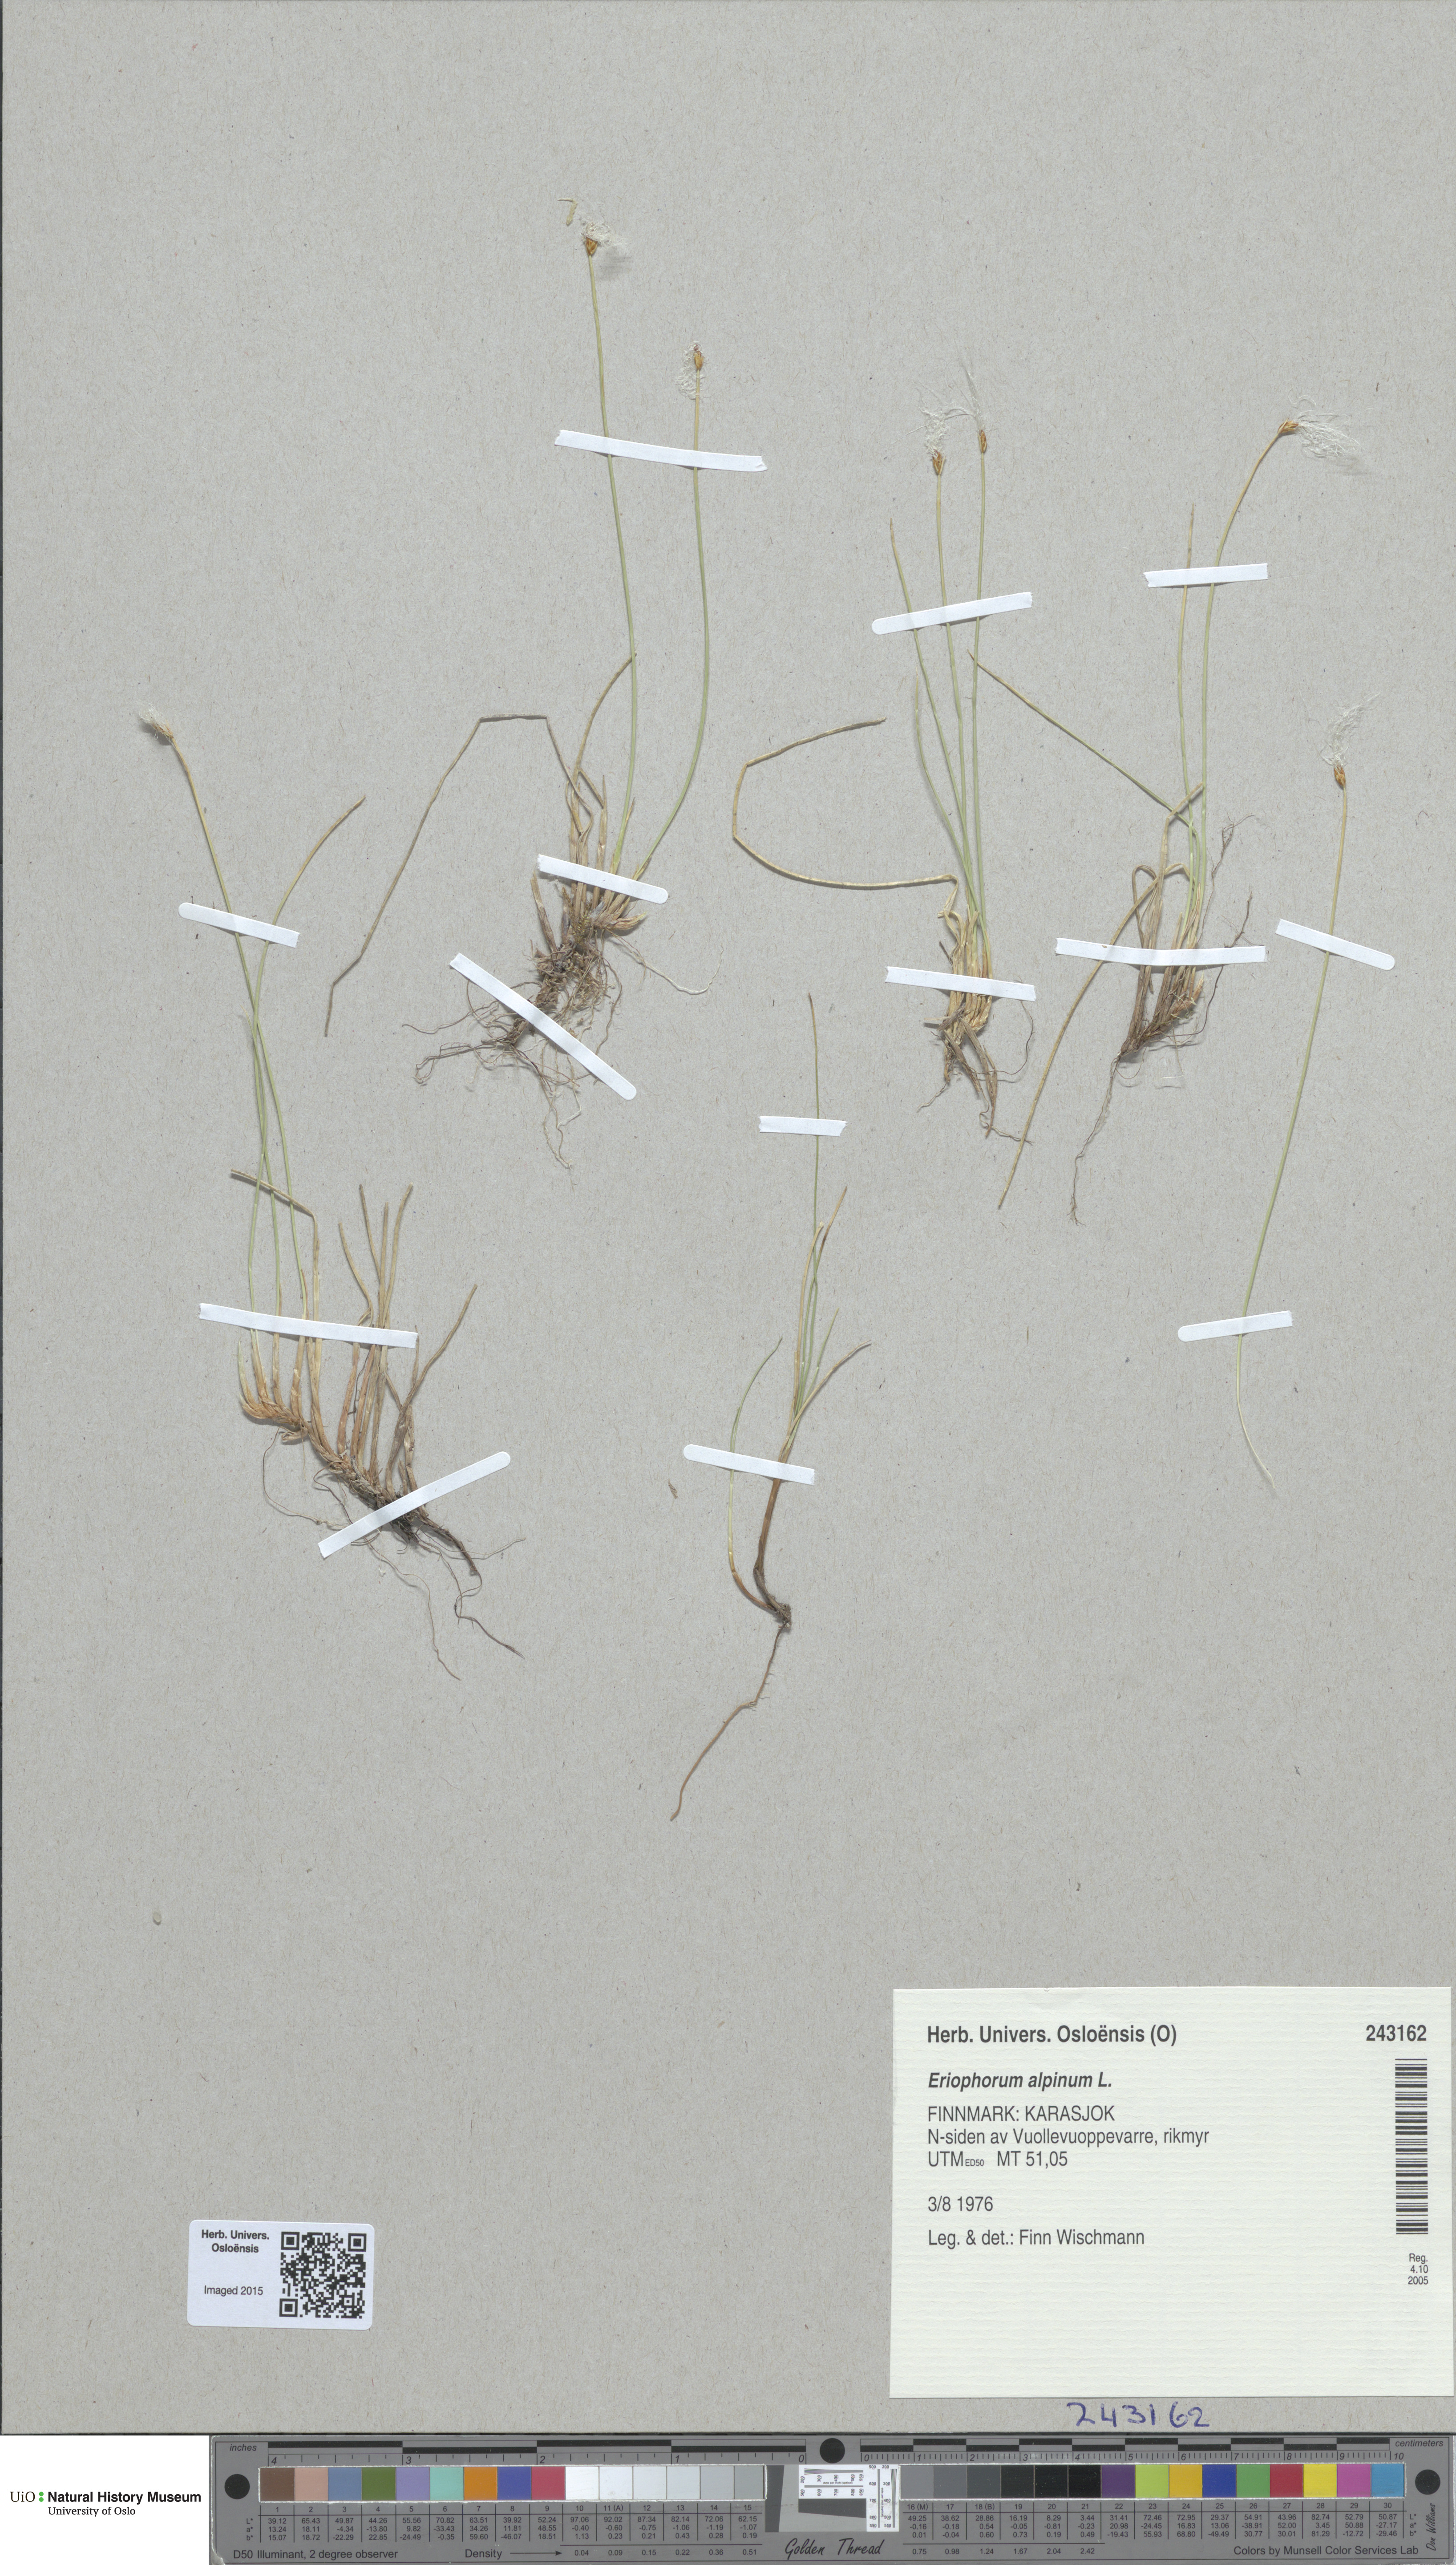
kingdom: Plantae
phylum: Tracheophyta
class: Liliopsida
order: Poales
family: Cyperaceae
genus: Trichophorum
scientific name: Trichophorum alpinum
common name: Alpine bulrush
